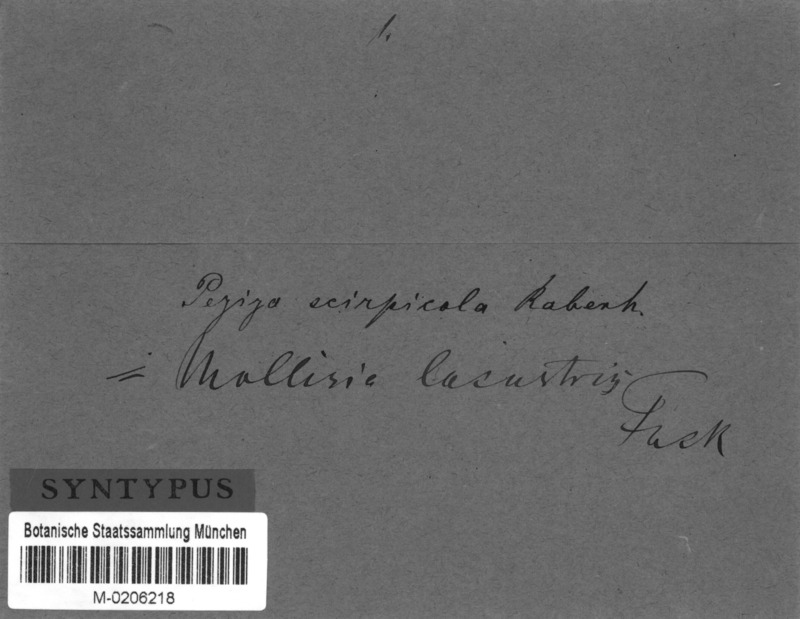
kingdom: Fungi
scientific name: Fungi
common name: Fungi
